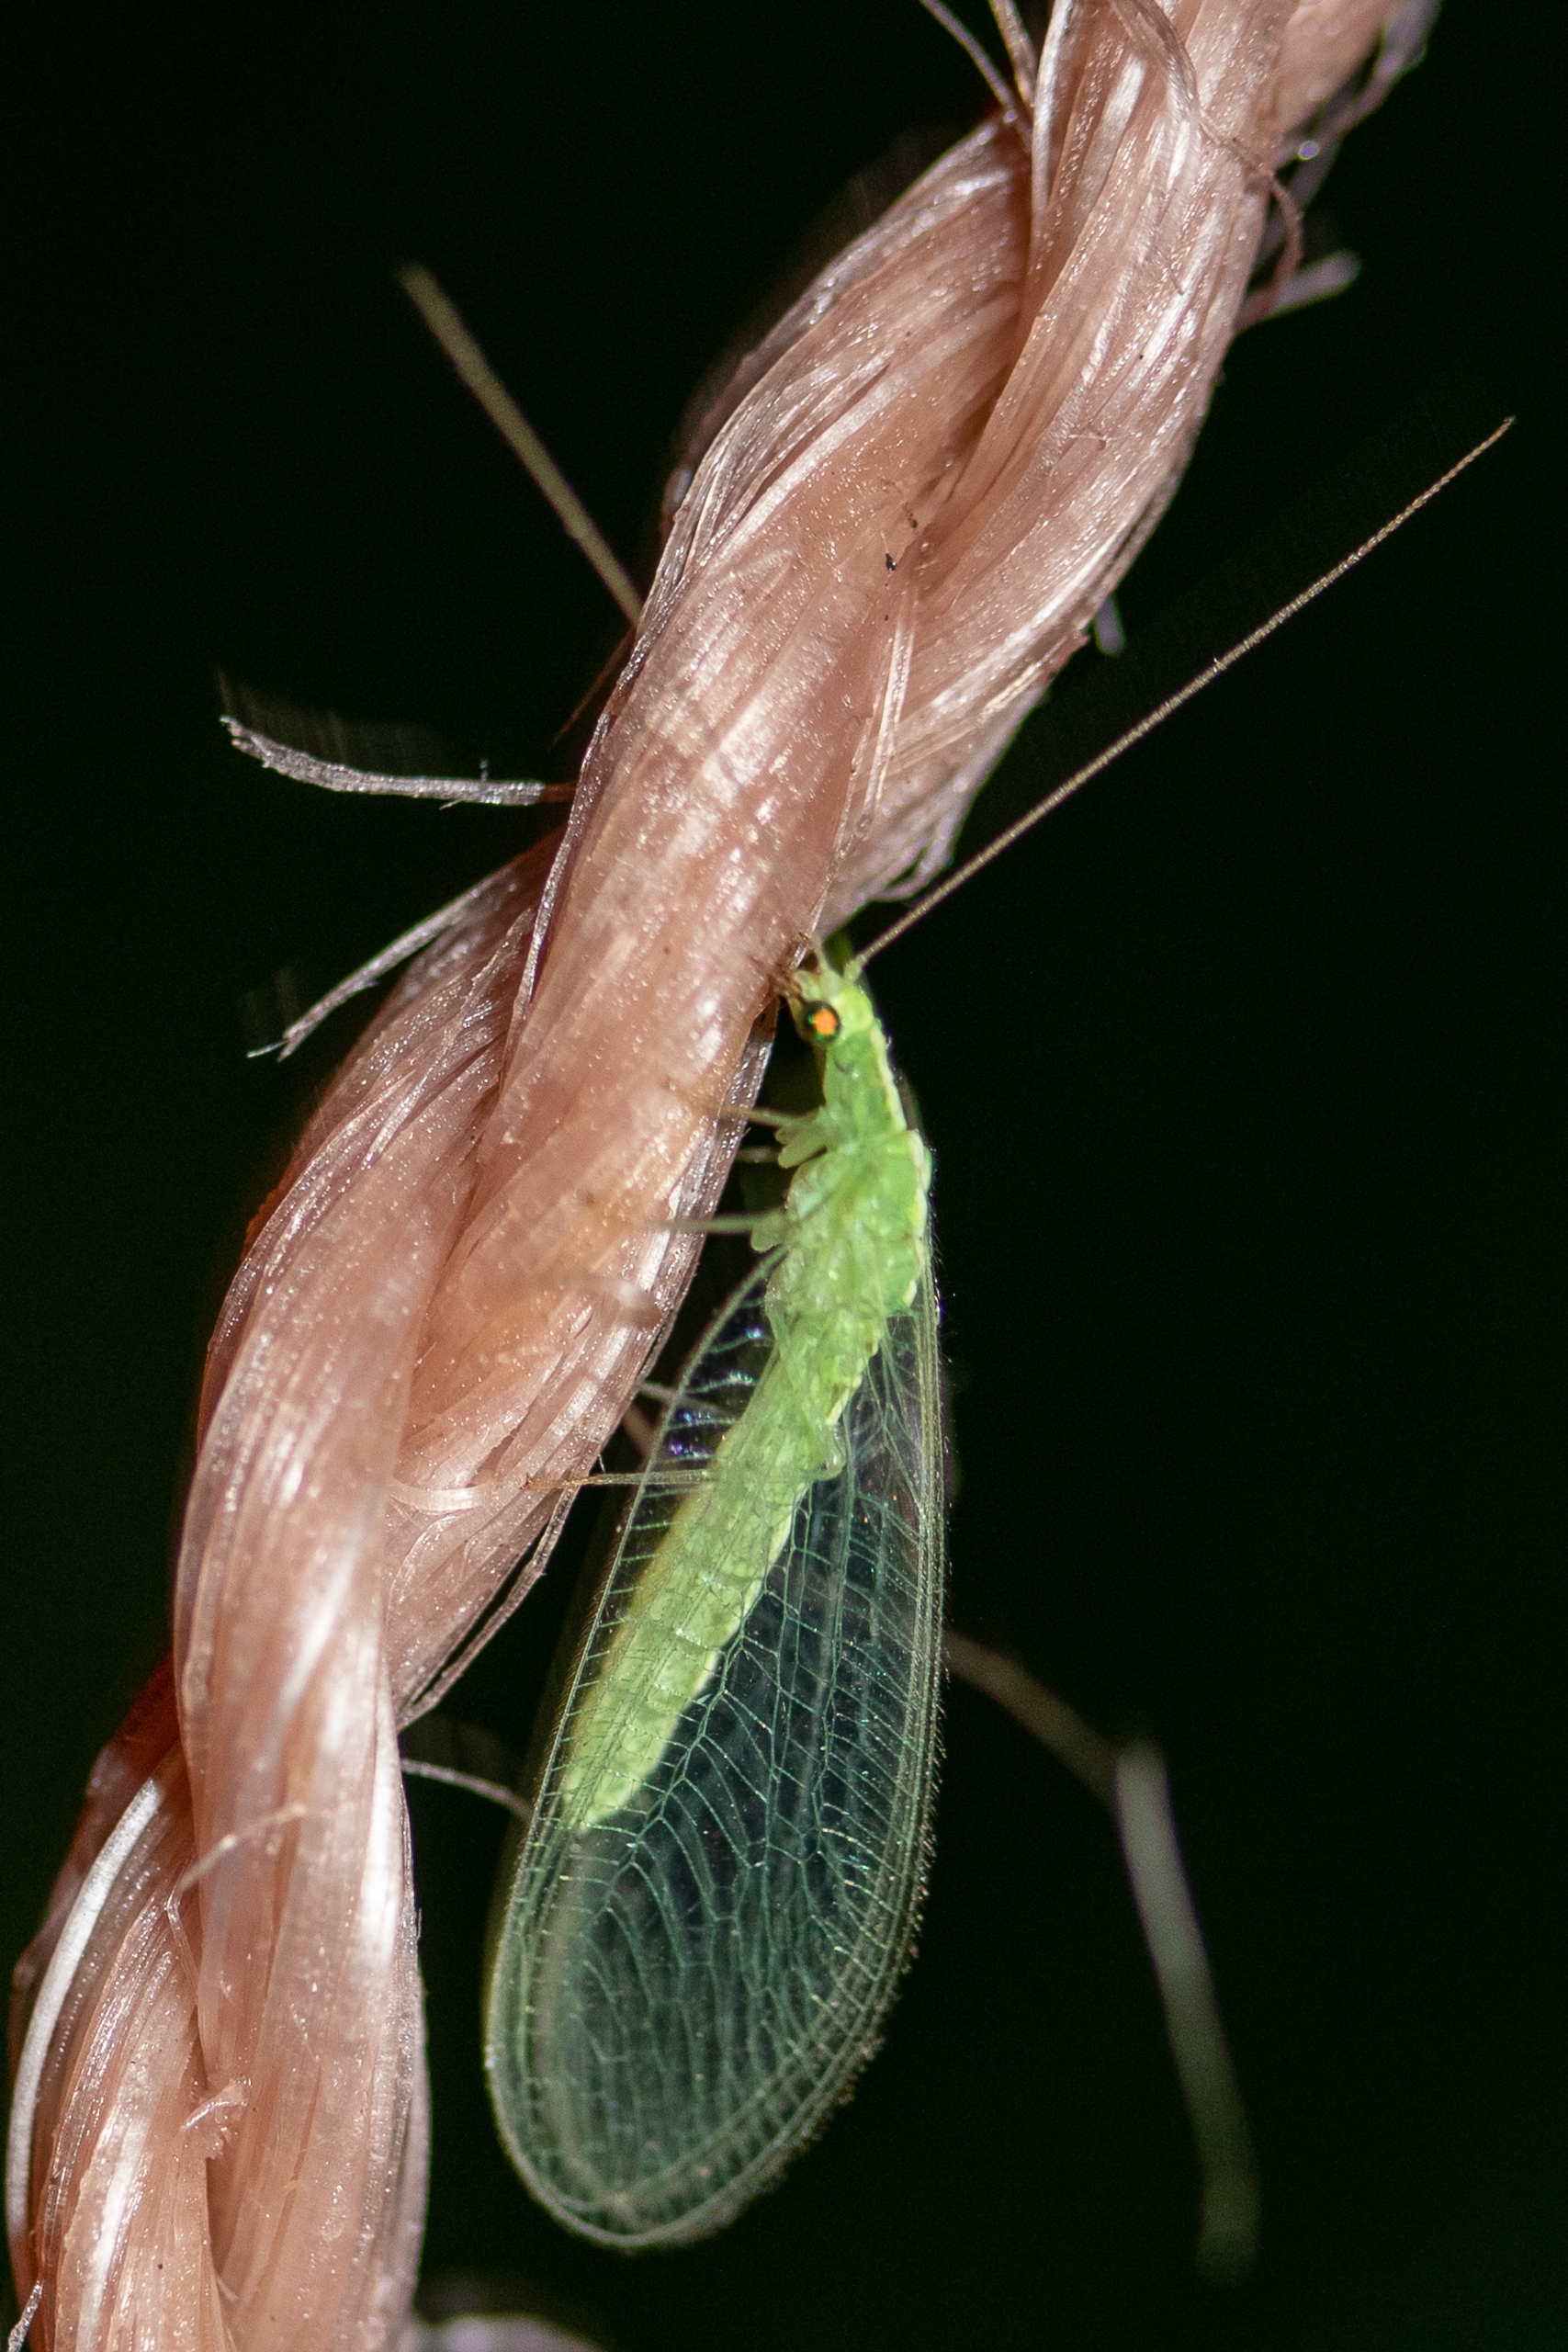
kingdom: Animalia
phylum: Arthropoda
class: Insecta
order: Neuroptera
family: Chrysopidae
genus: Chrysoperla
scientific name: Chrysoperla carnea
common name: Almindelig guldøje
